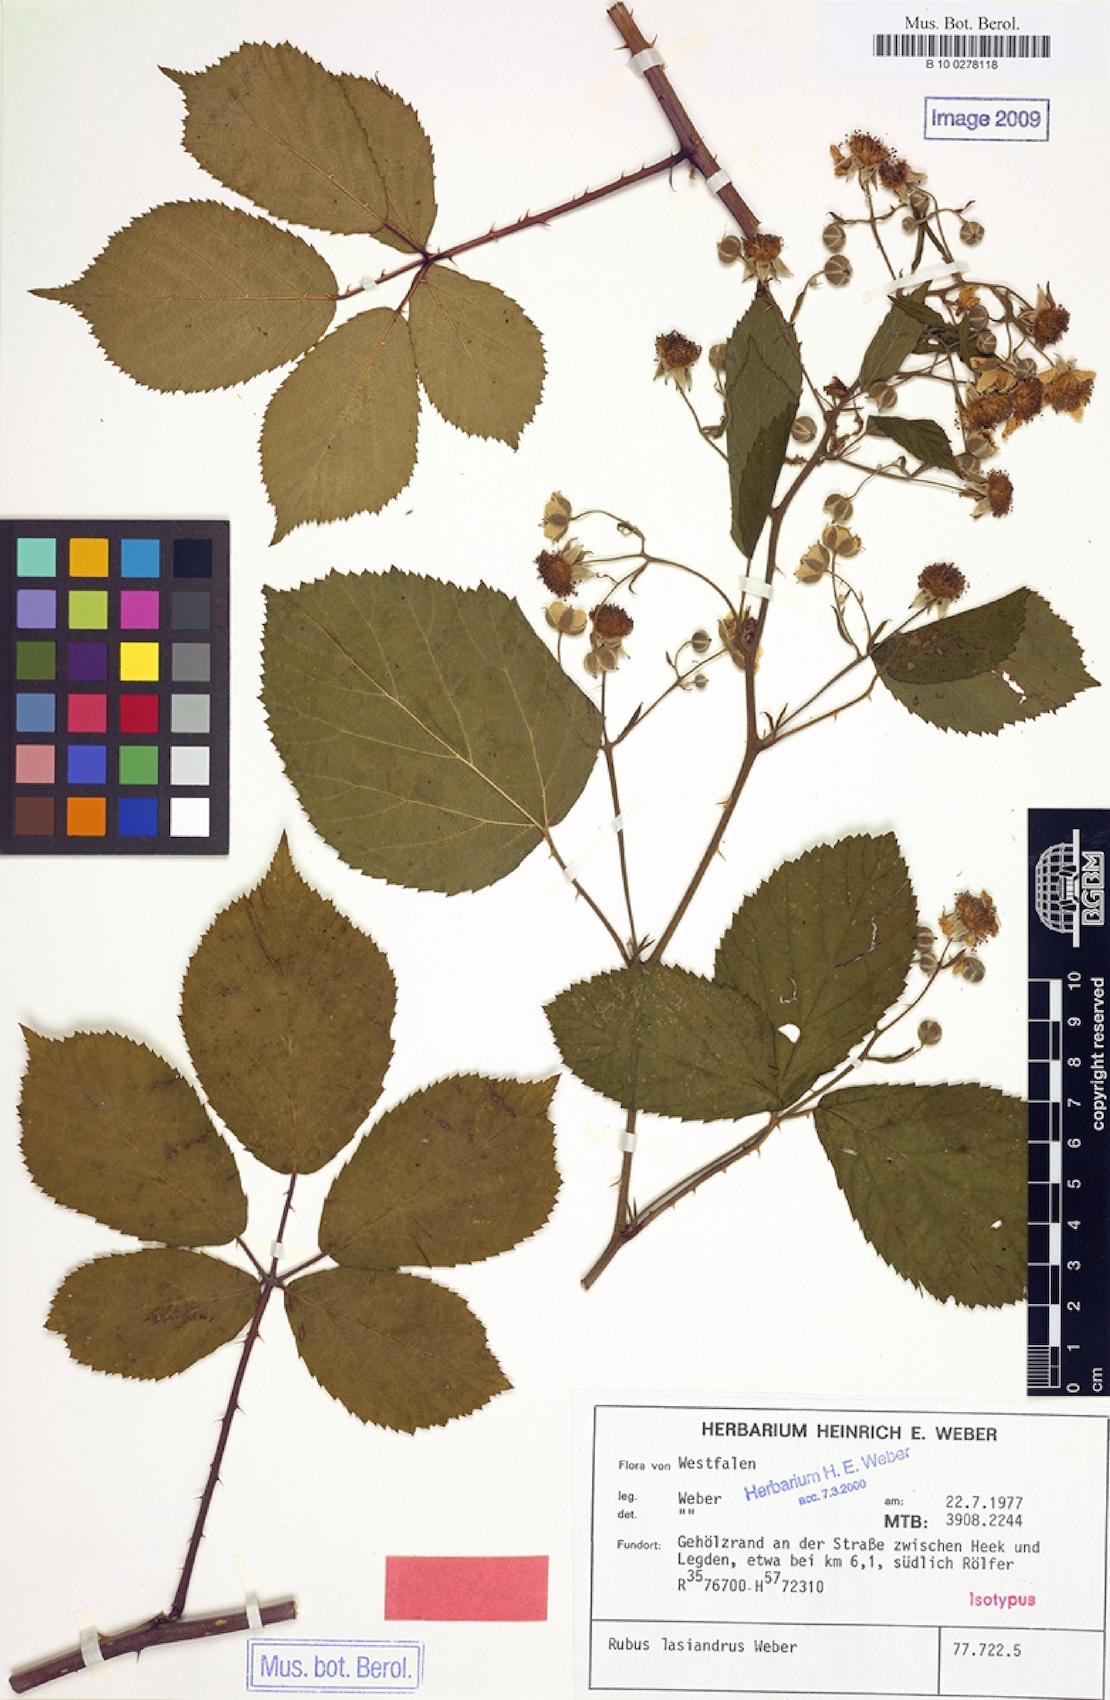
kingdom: Plantae
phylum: Tracheophyta
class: Magnoliopsida
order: Rosales
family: Rosaceae
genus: Rubus
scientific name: Rubus lasiandrus
